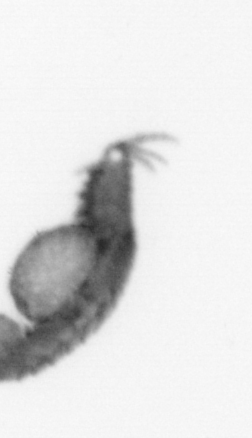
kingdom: Animalia
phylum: Annelida
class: Polychaeta
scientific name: Polychaeta
